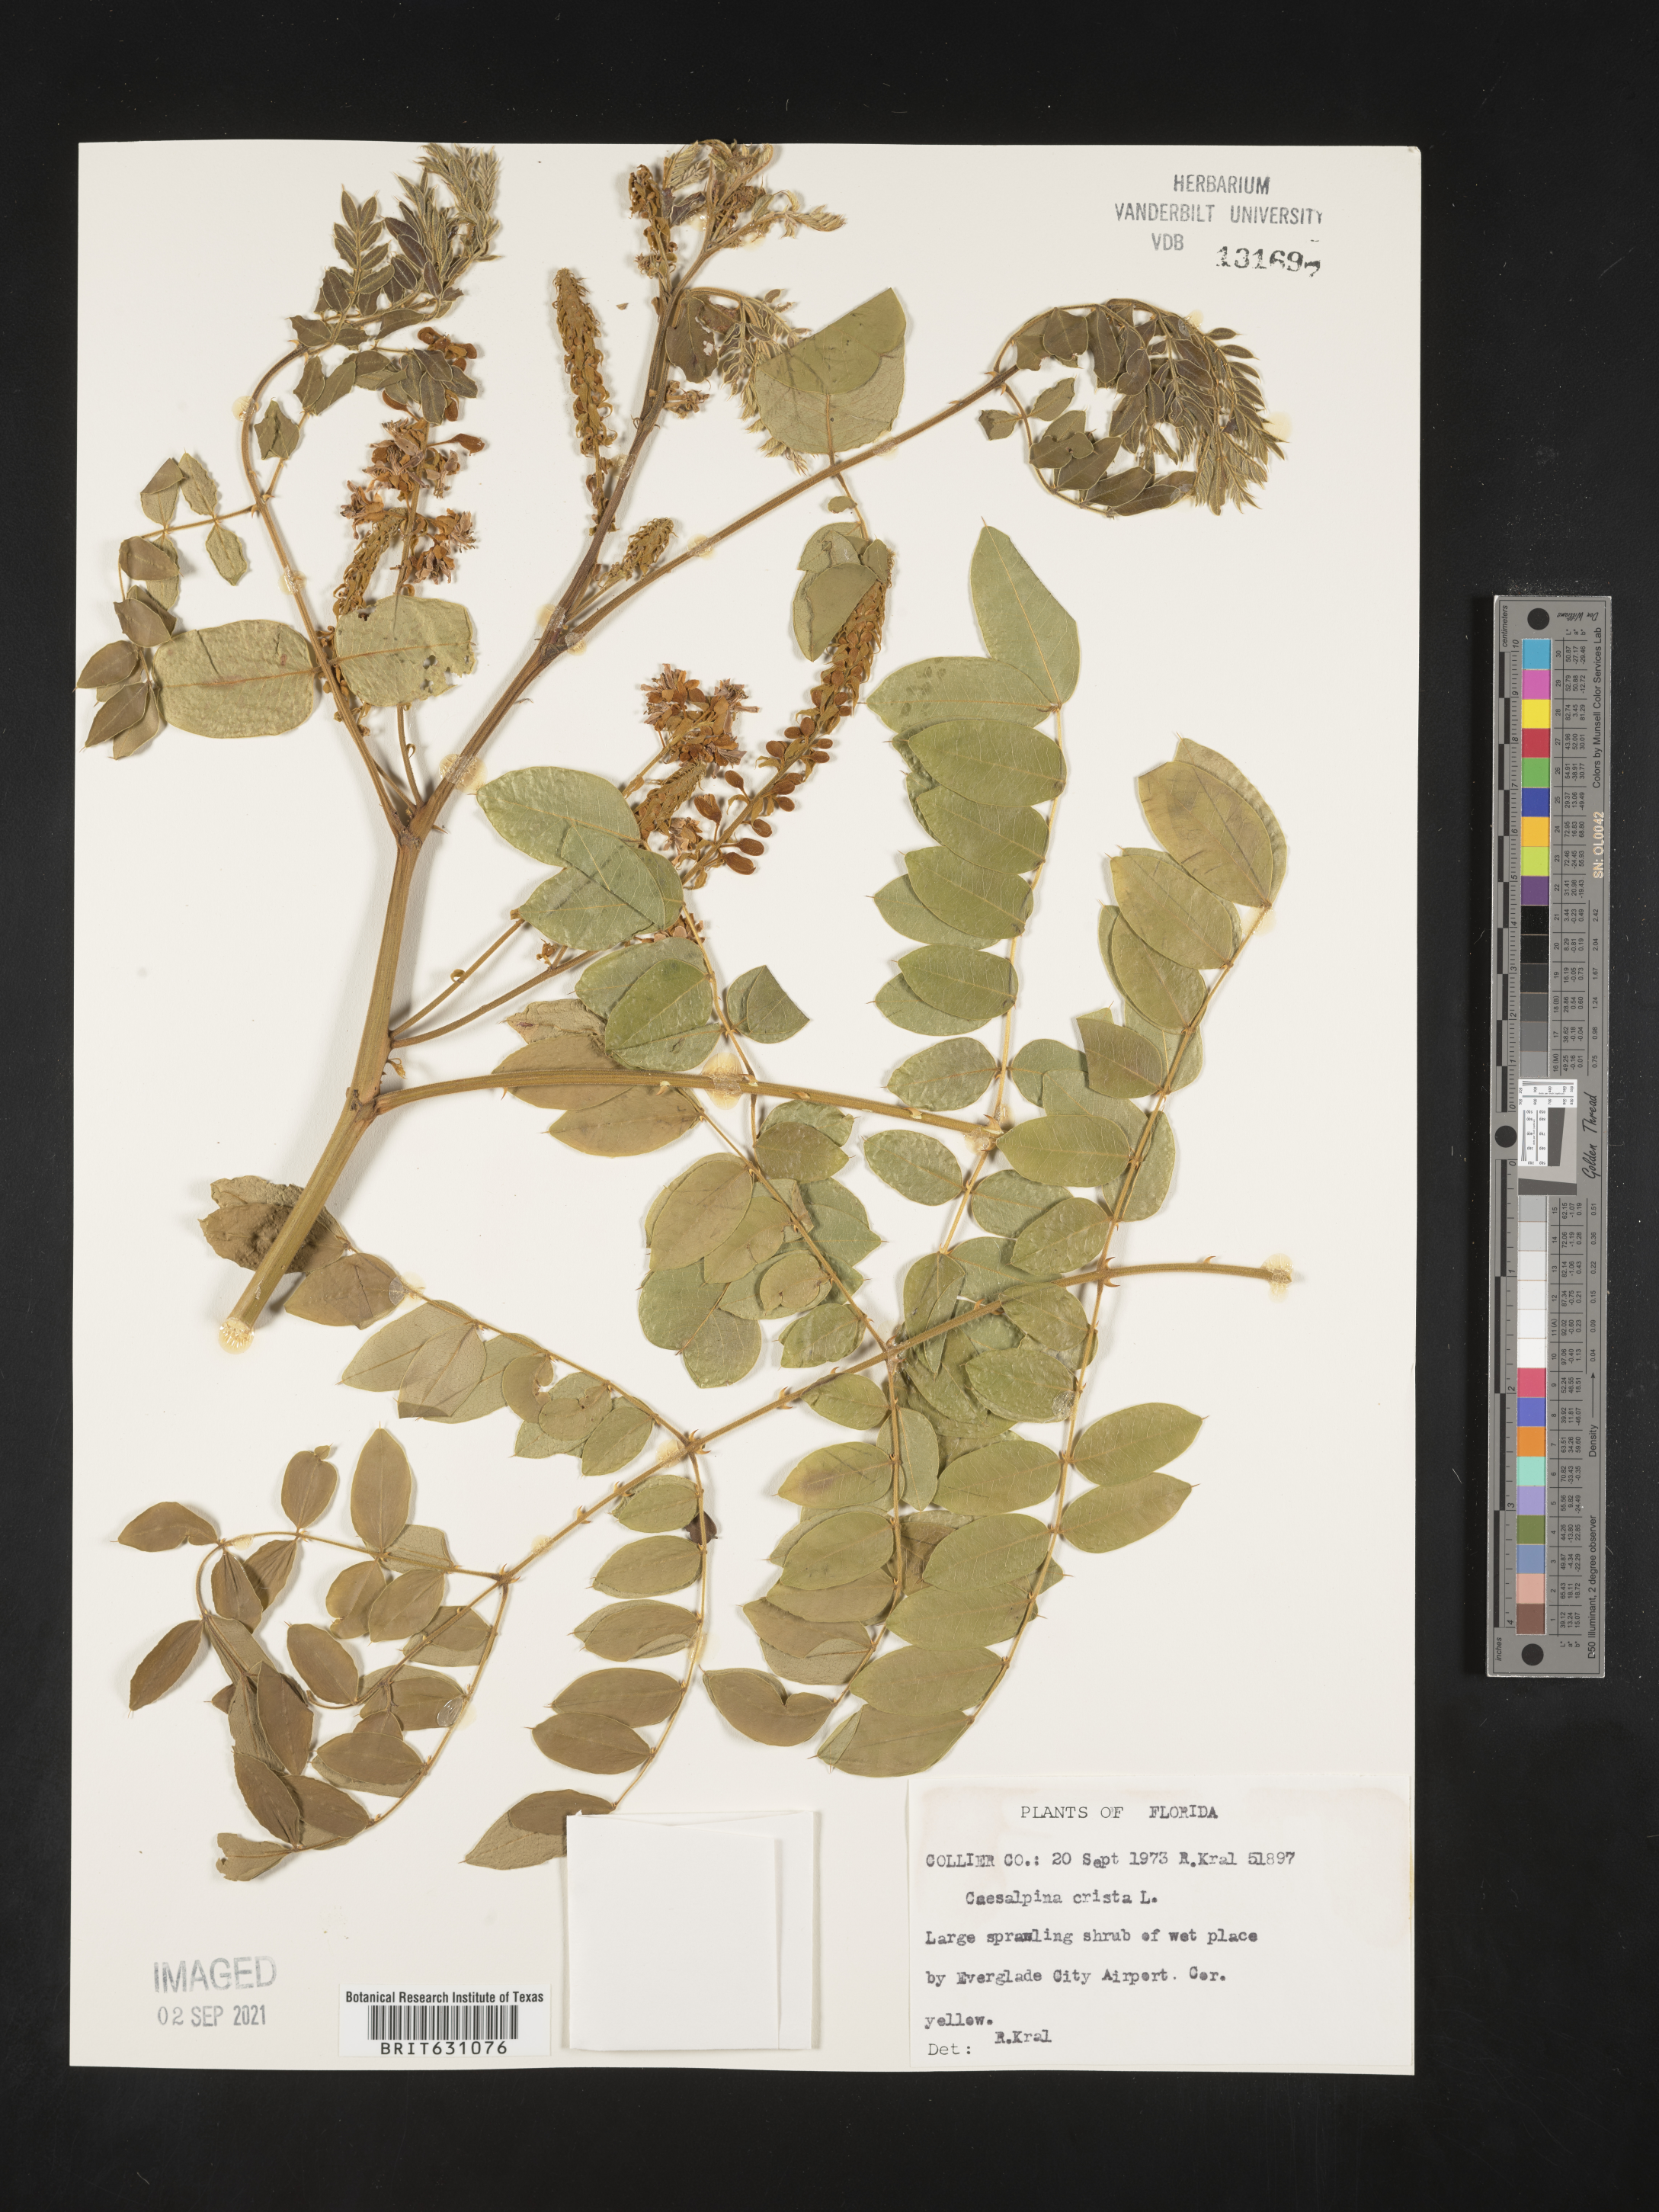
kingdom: Plantae
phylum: Tracheophyta
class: Magnoliopsida
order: Fabales
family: Fabaceae
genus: Caesalpinia
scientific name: Caesalpinia
